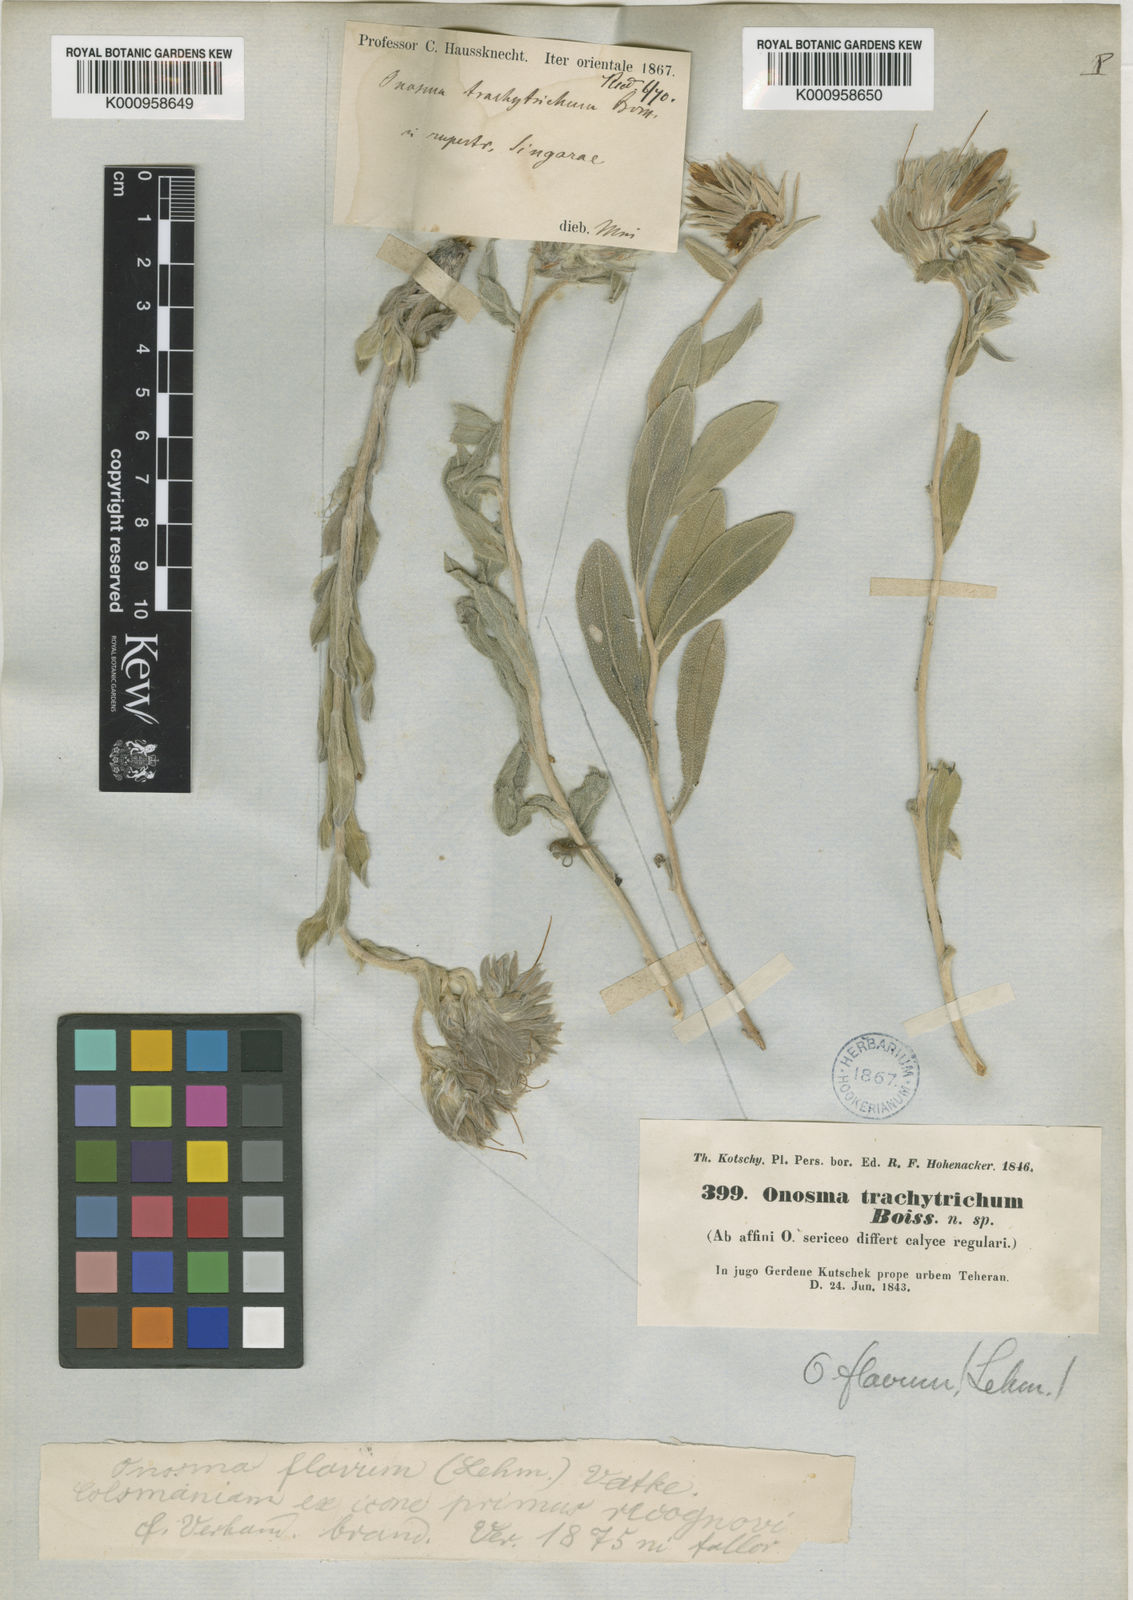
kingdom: Plantae
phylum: Tracheophyta
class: Magnoliopsida
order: Boraginales
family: Boraginaceae
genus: Onosma
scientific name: Onosma isaurica
